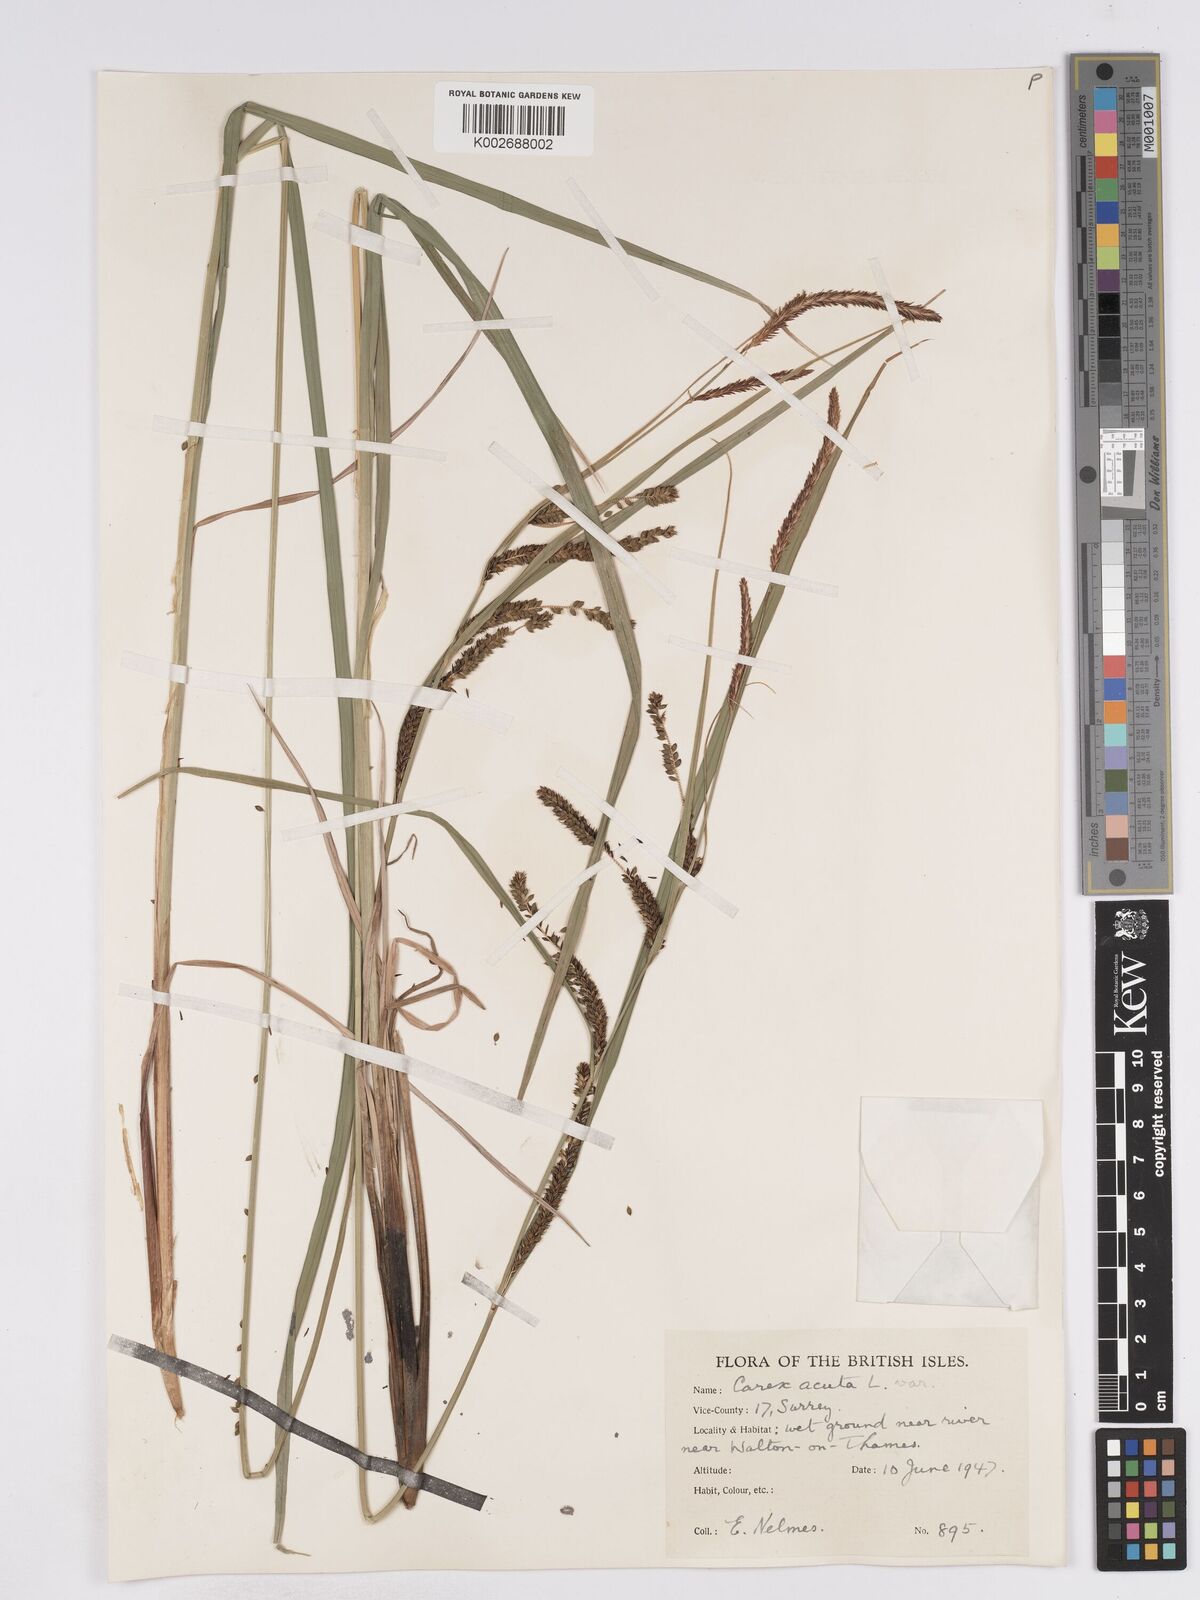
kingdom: Plantae
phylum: Tracheophyta
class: Liliopsida
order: Poales
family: Cyperaceae
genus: Carex
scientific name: Carex acuta
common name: Slender tufted-sedge
